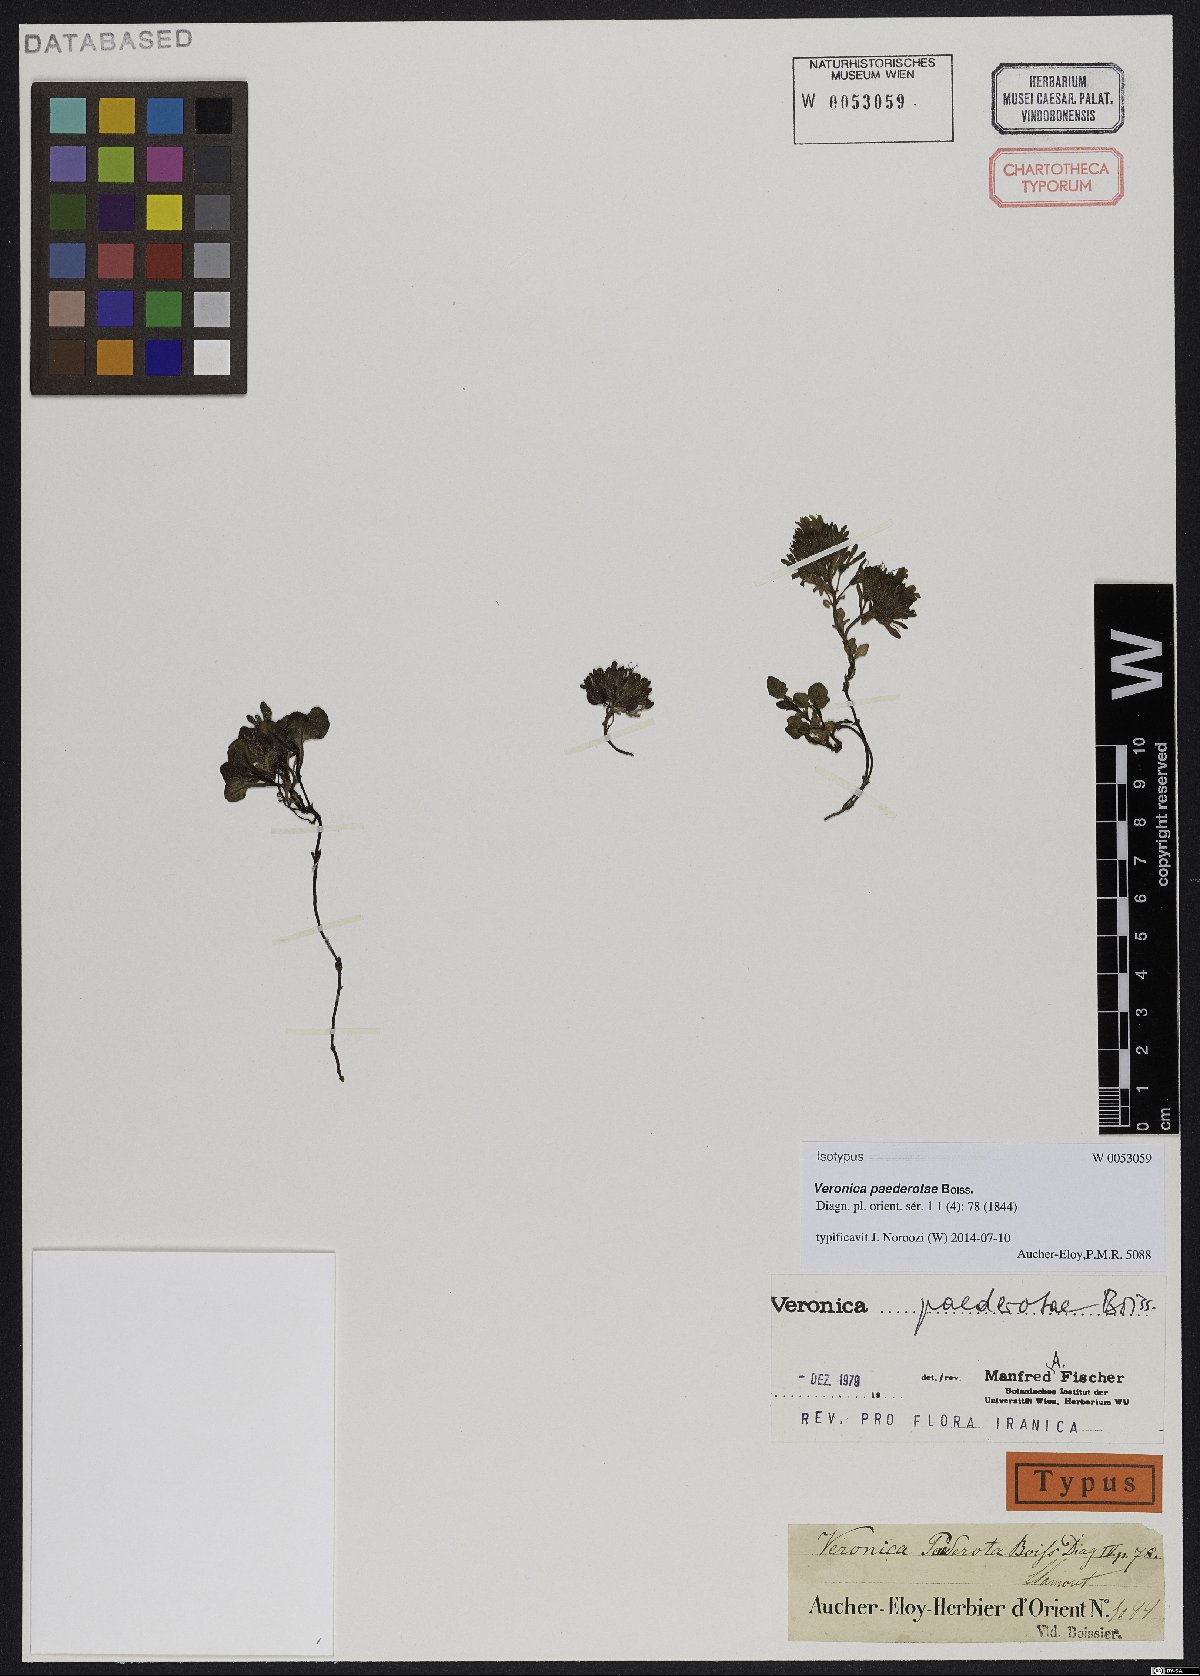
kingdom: Plantae
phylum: Tracheophyta
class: Magnoliopsida
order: Lamiales
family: Plantaginaceae
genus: Veronica
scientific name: Veronica paederotae
